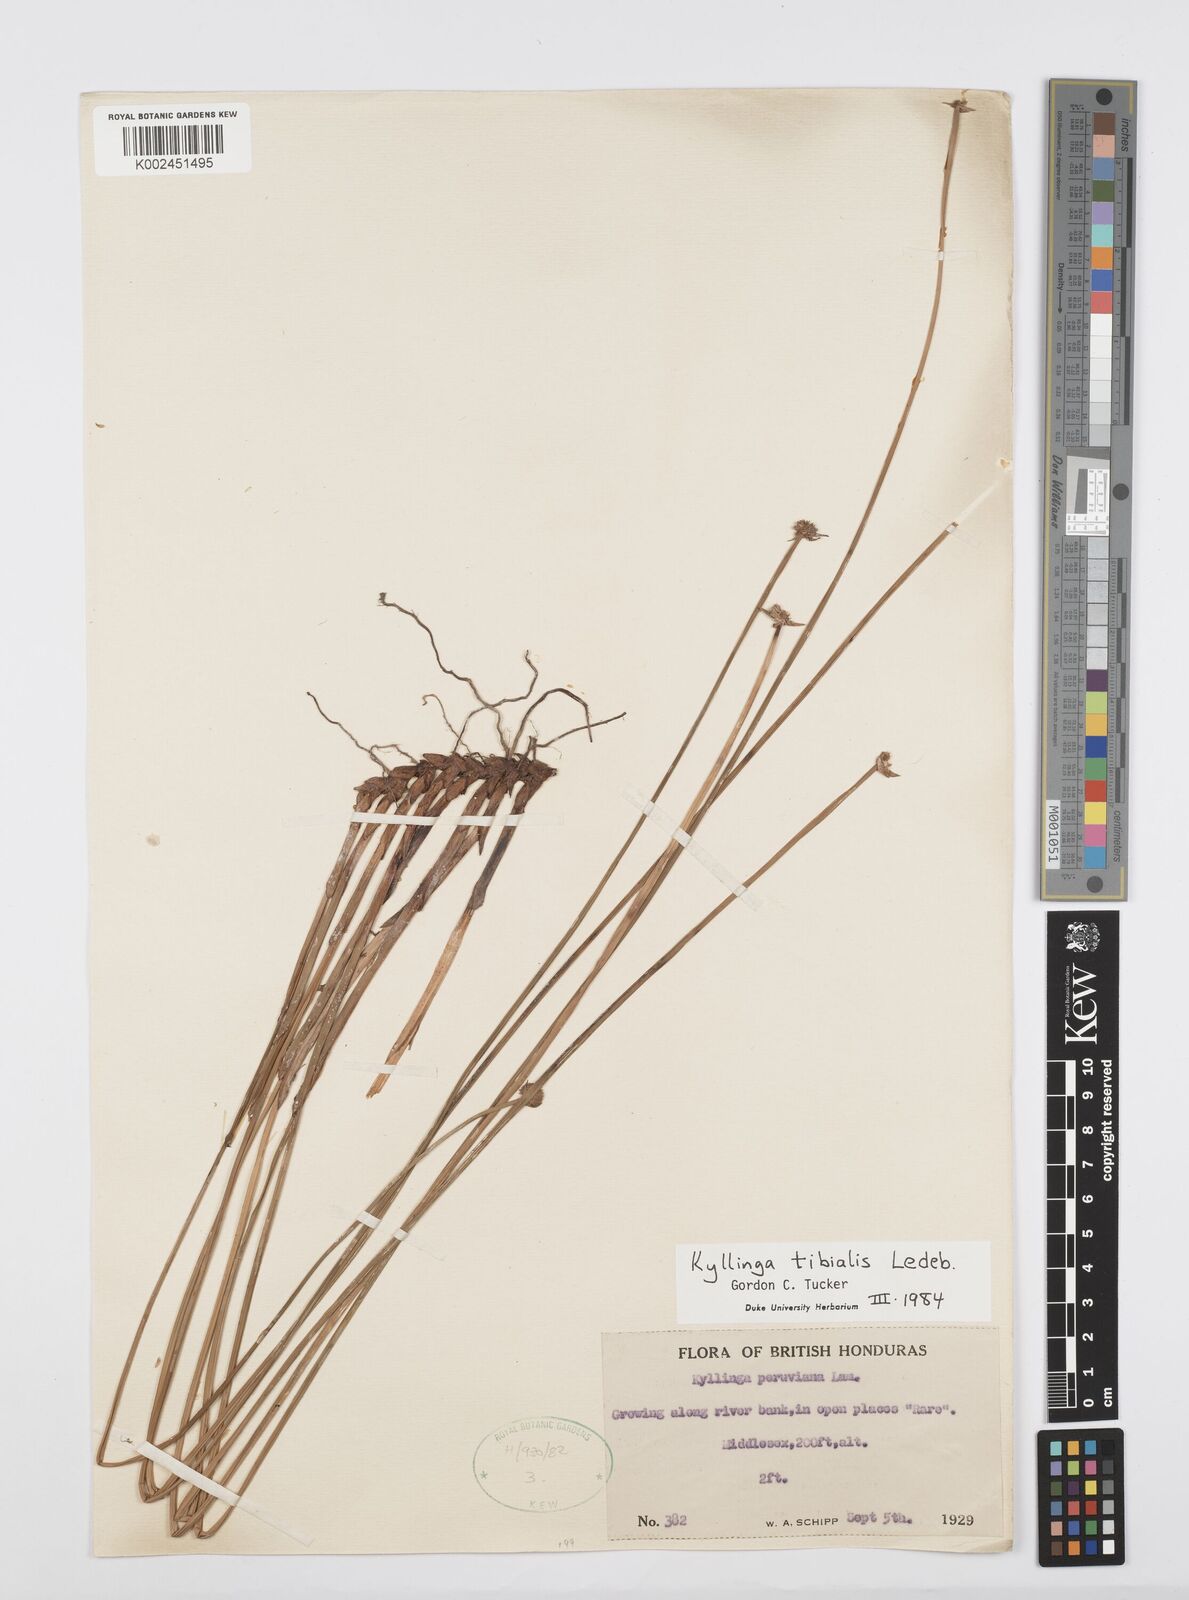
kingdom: Plantae
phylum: Tracheophyta
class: Liliopsida
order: Poales
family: Cyperaceae
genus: Cyperus
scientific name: Cyperus obtusatus
